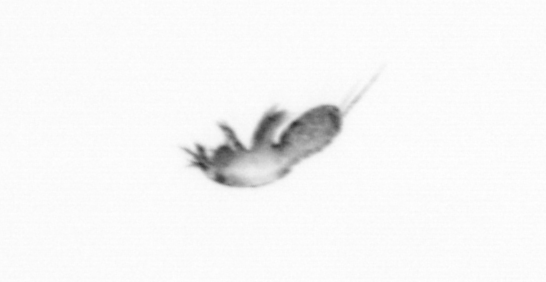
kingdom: Animalia
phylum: Arthropoda
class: Copepoda
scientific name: Copepoda
